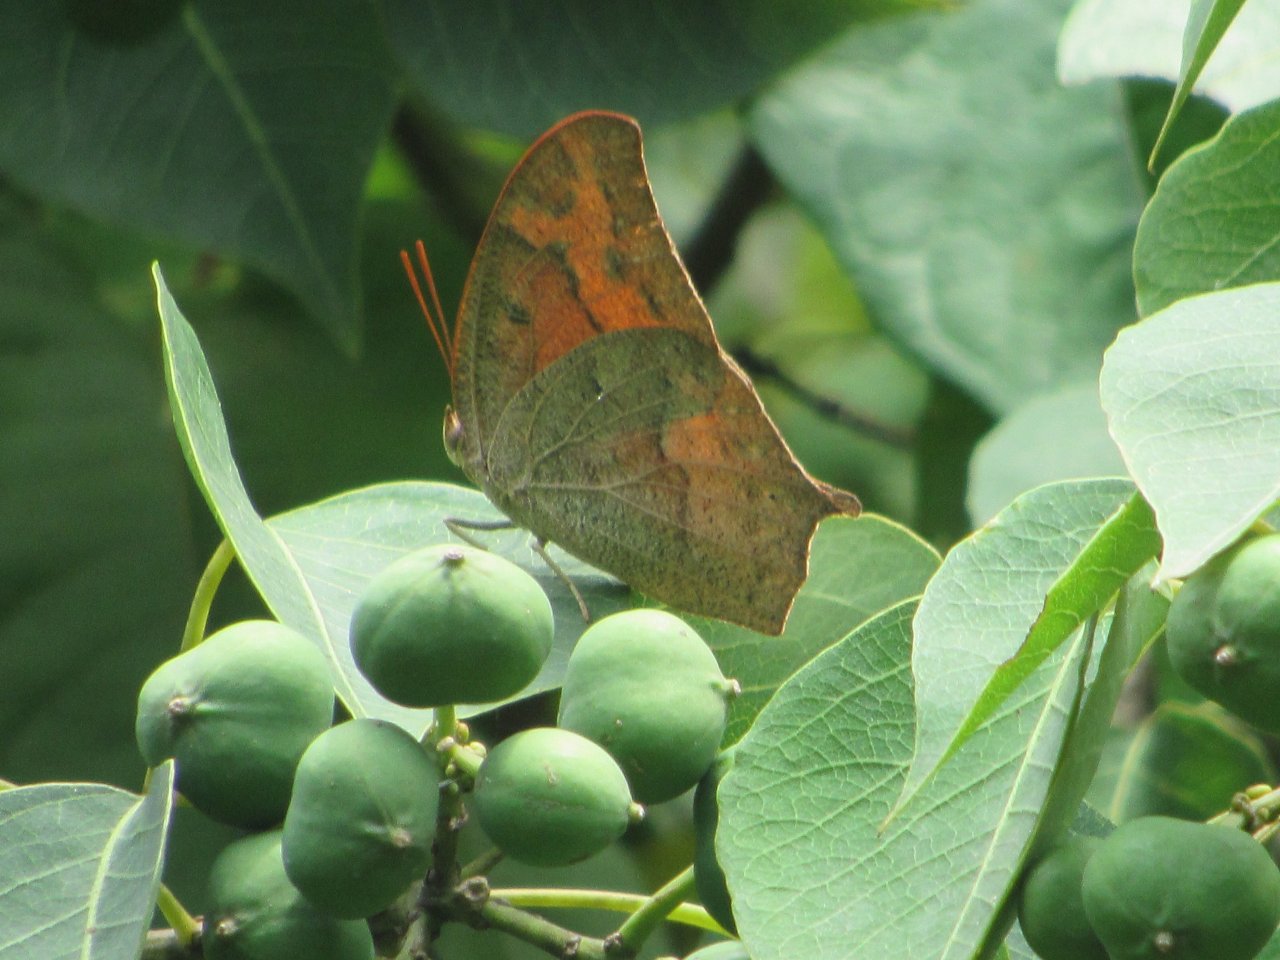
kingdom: Animalia
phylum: Arthropoda
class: Insecta
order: Lepidoptera
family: Nymphalidae
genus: Anaea
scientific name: Anaea andria
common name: Goatweed Leafwing
